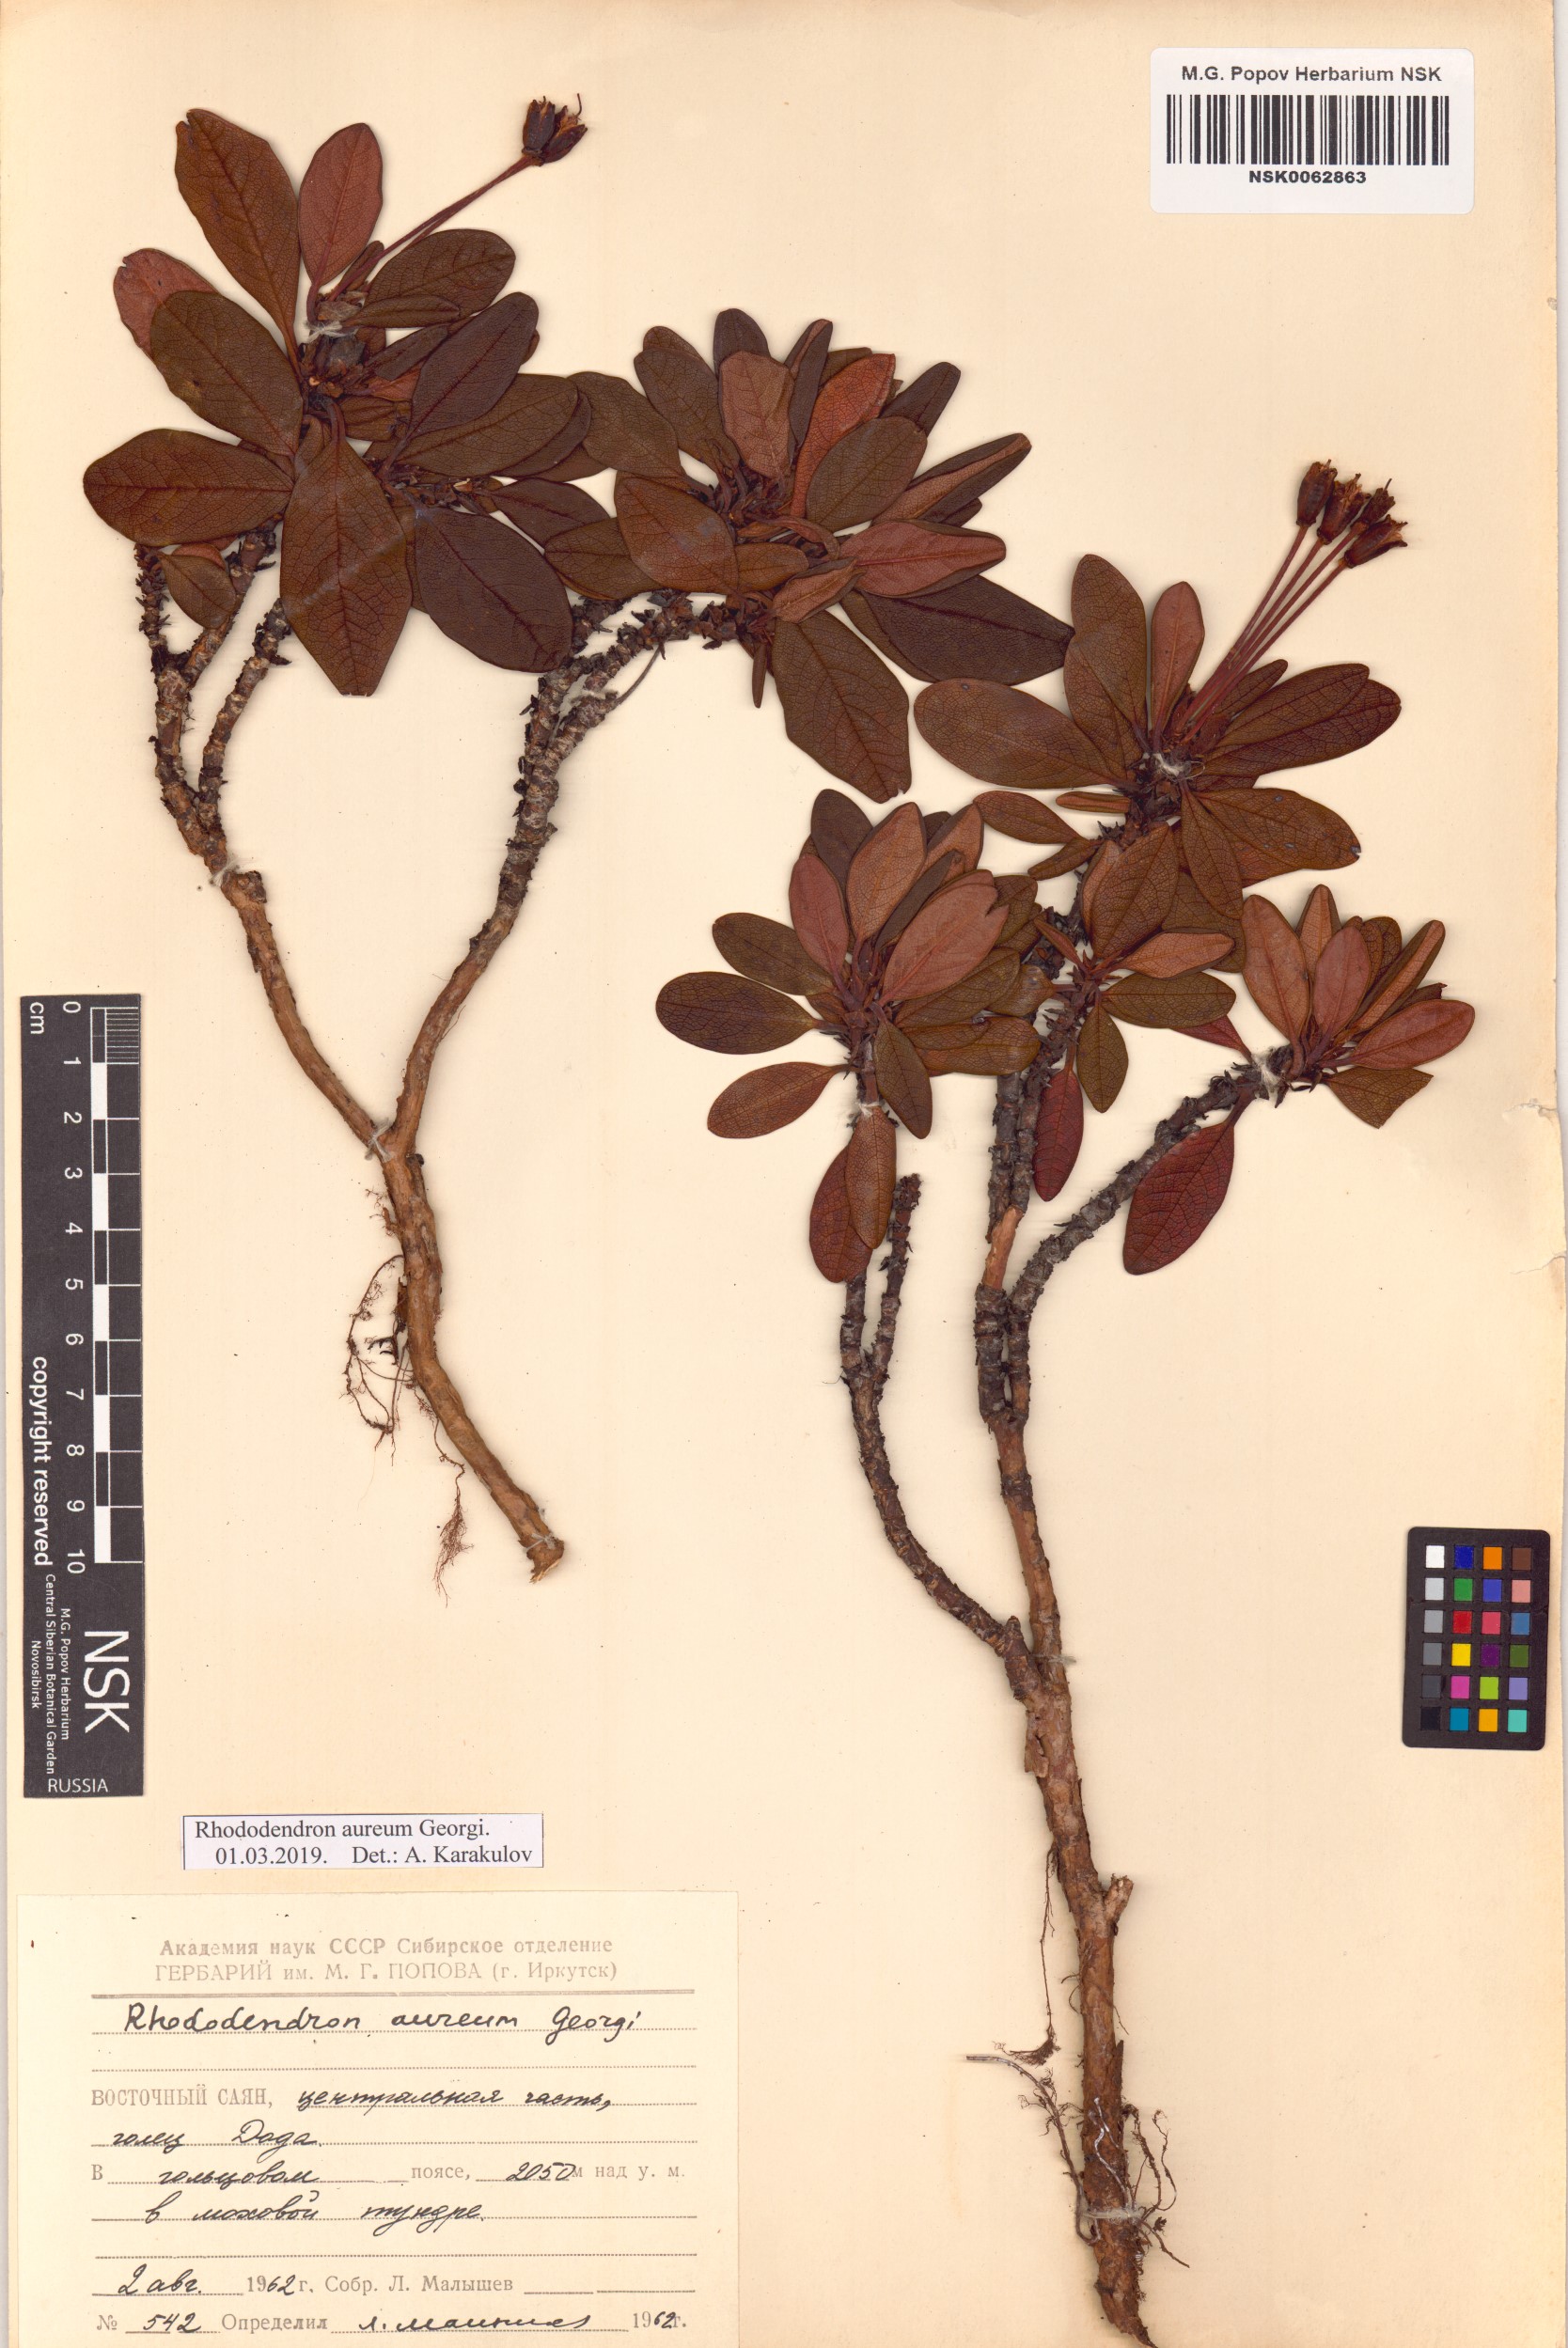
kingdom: Plantae
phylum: Tracheophyta
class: Magnoliopsida
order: Ericales
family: Ericaceae
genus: Rhododendron
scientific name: Rhododendron aureum
